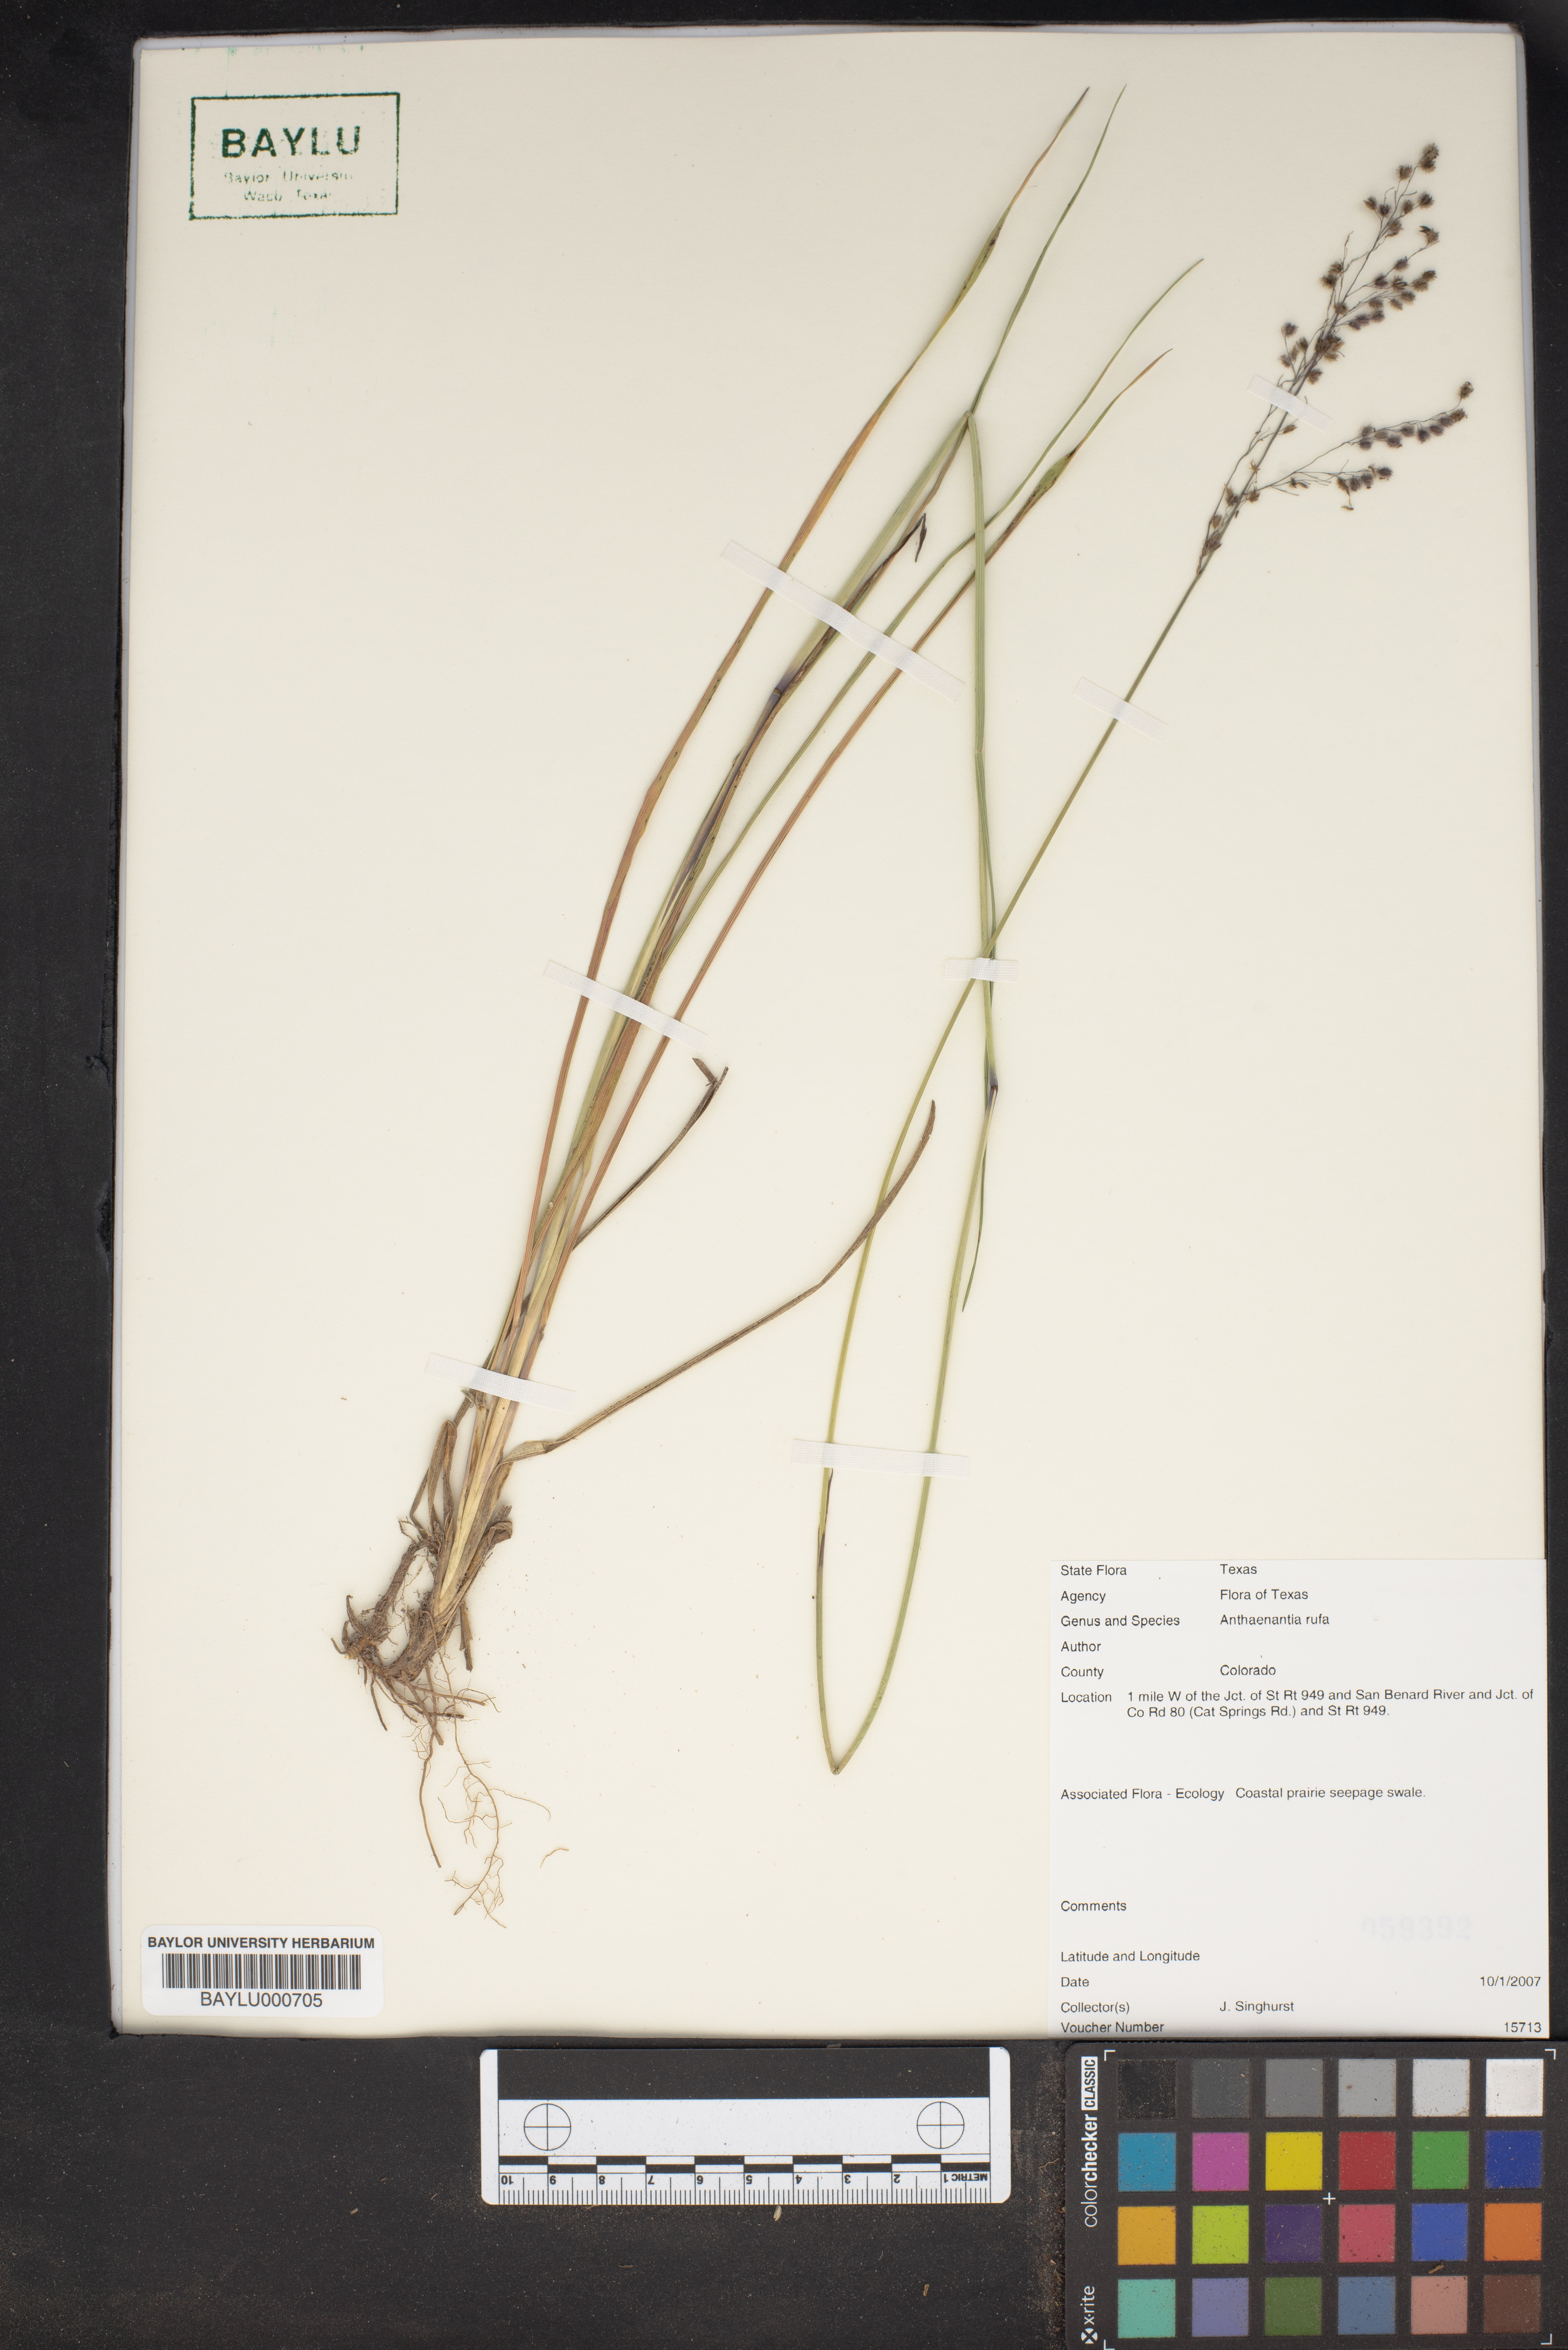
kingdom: Plantae
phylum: Tracheophyta
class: Liliopsida
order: Poales
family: Poaceae
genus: Anthenantia
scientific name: Anthenantia rufa
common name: Purple silkyscale
